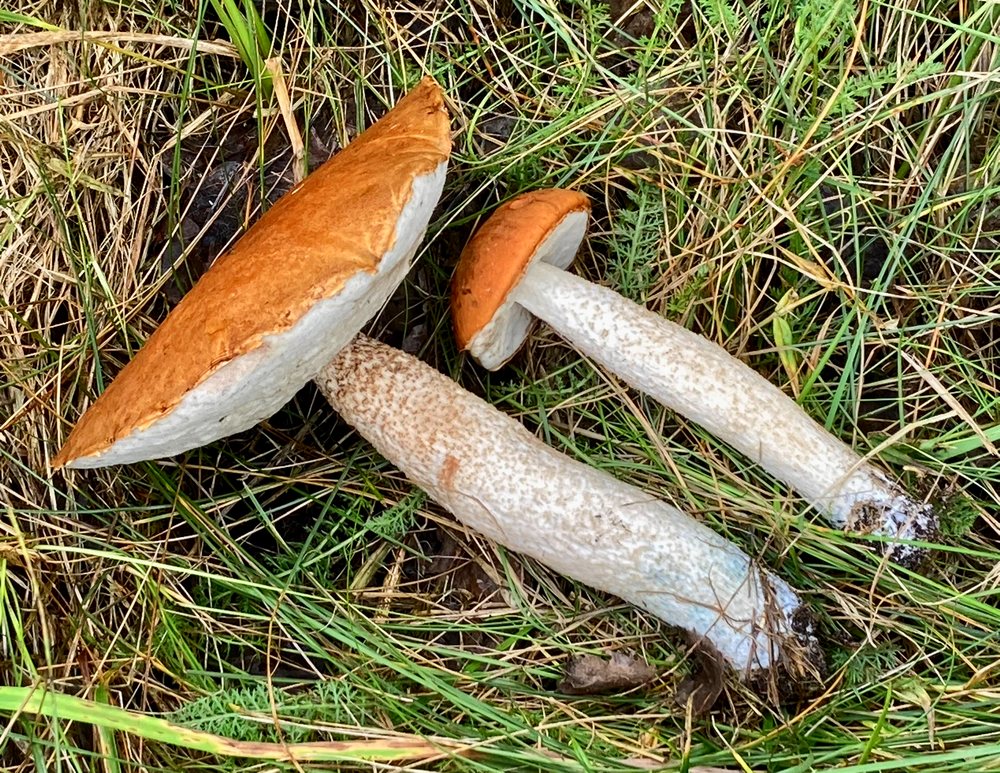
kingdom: Fungi
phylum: Basidiomycota
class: Agaricomycetes
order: Boletales
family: Boletaceae
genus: Leccinum
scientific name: Leccinum albostipitatum
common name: aspe-skælrørhat
